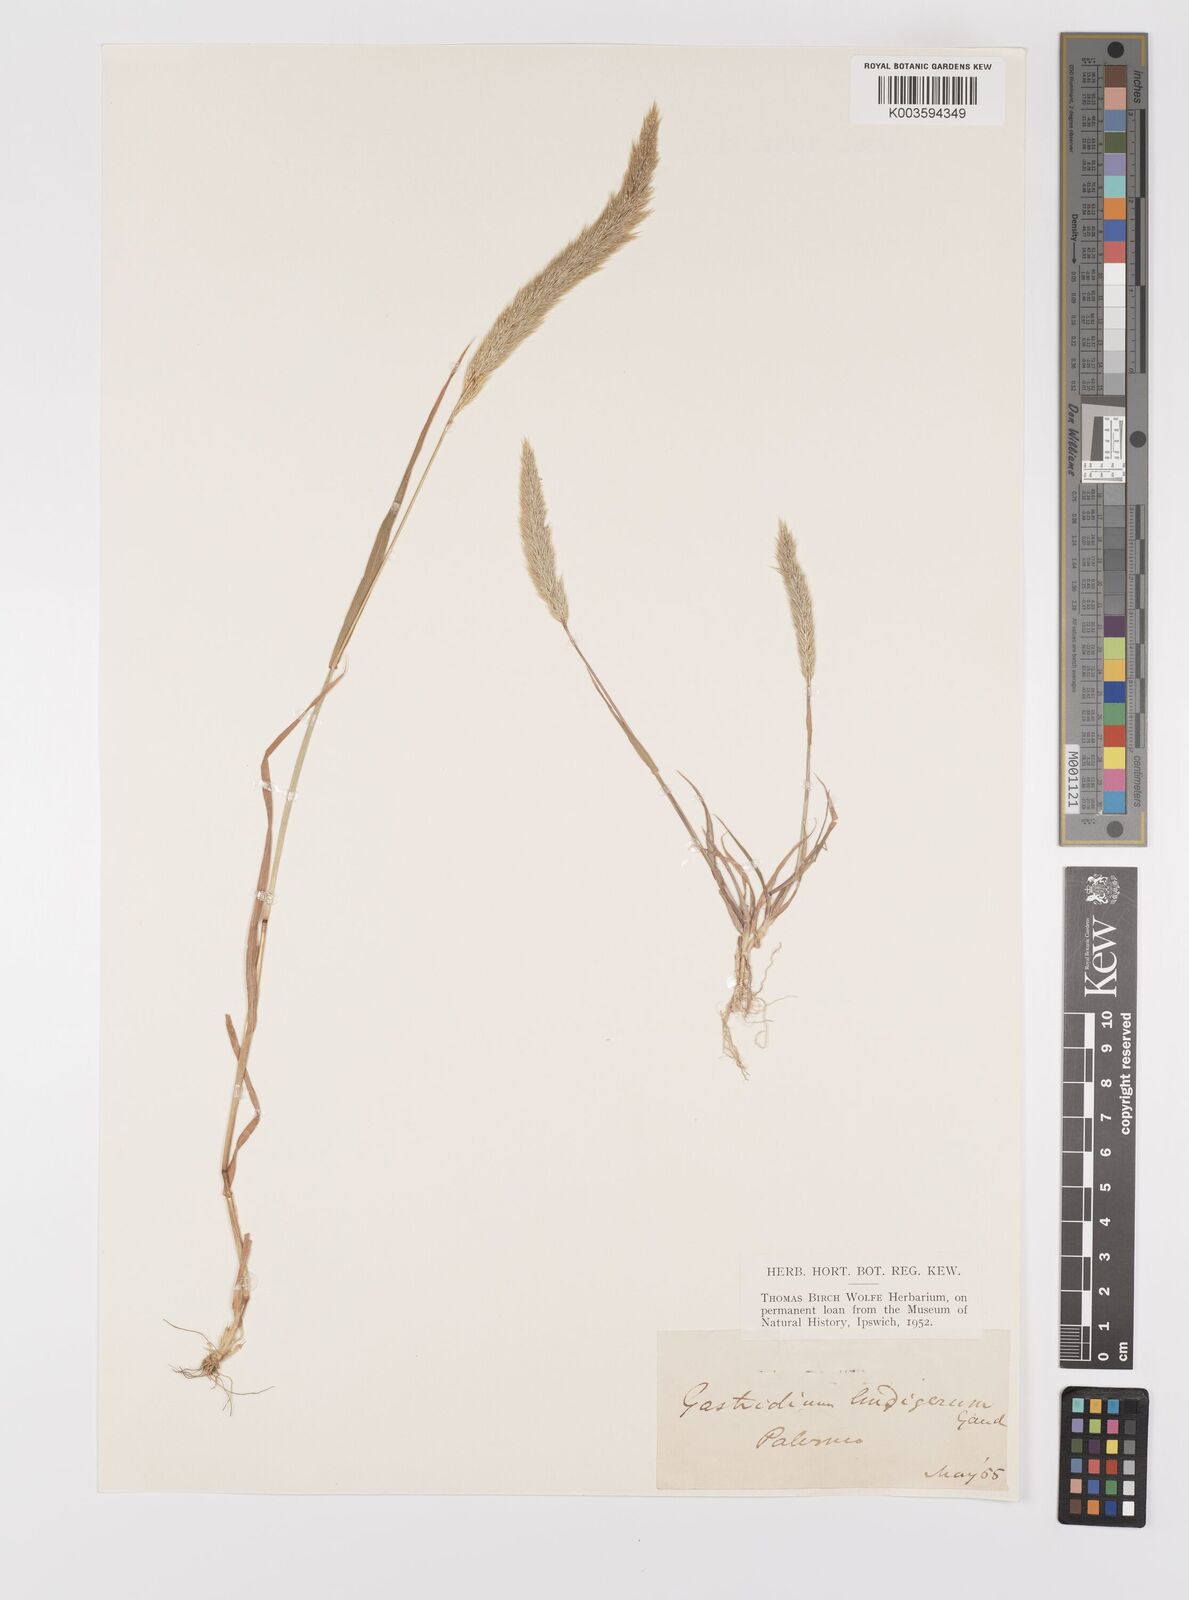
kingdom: Plantae
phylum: Tracheophyta
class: Liliopsida
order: Poales
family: Poaceae
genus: Gastridium
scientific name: Gastridium phleoides
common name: Nit grass
